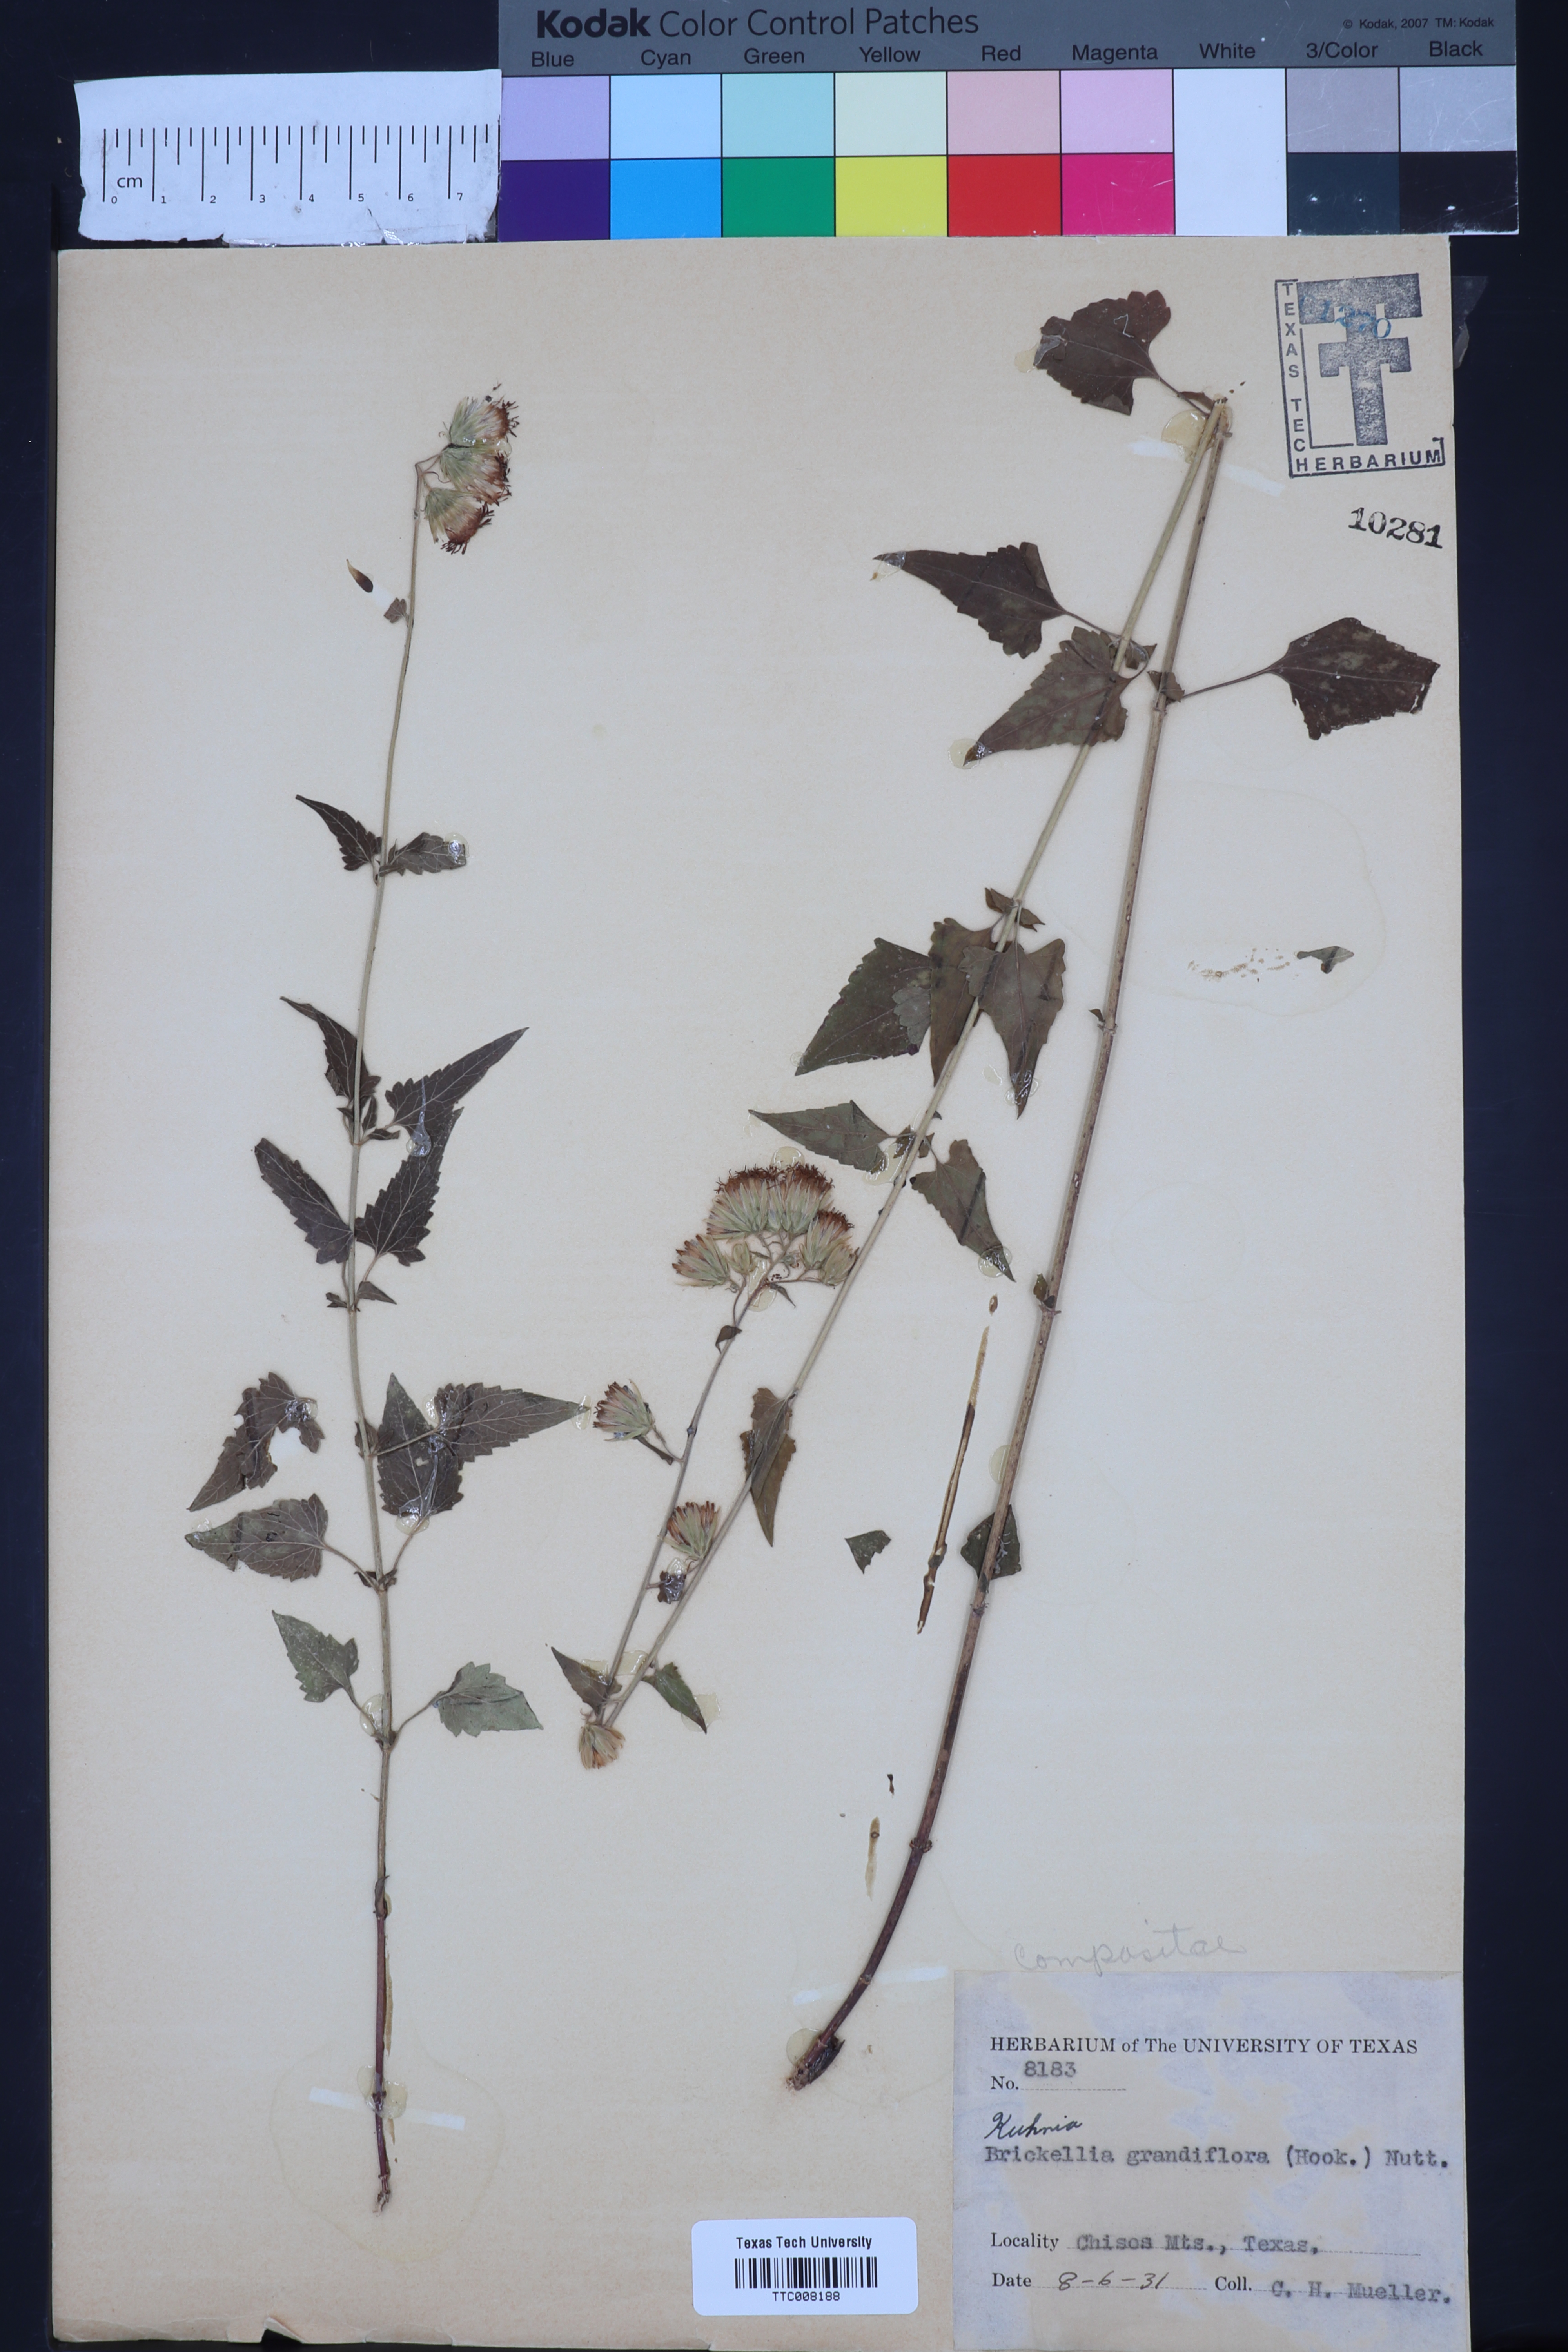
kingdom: Plantae
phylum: Tracheophyta
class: Magnoliopsida
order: Asterales
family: Asteraceae
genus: Brickellia
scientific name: Brickellia grandiflora
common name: Large-flowered brickellia
